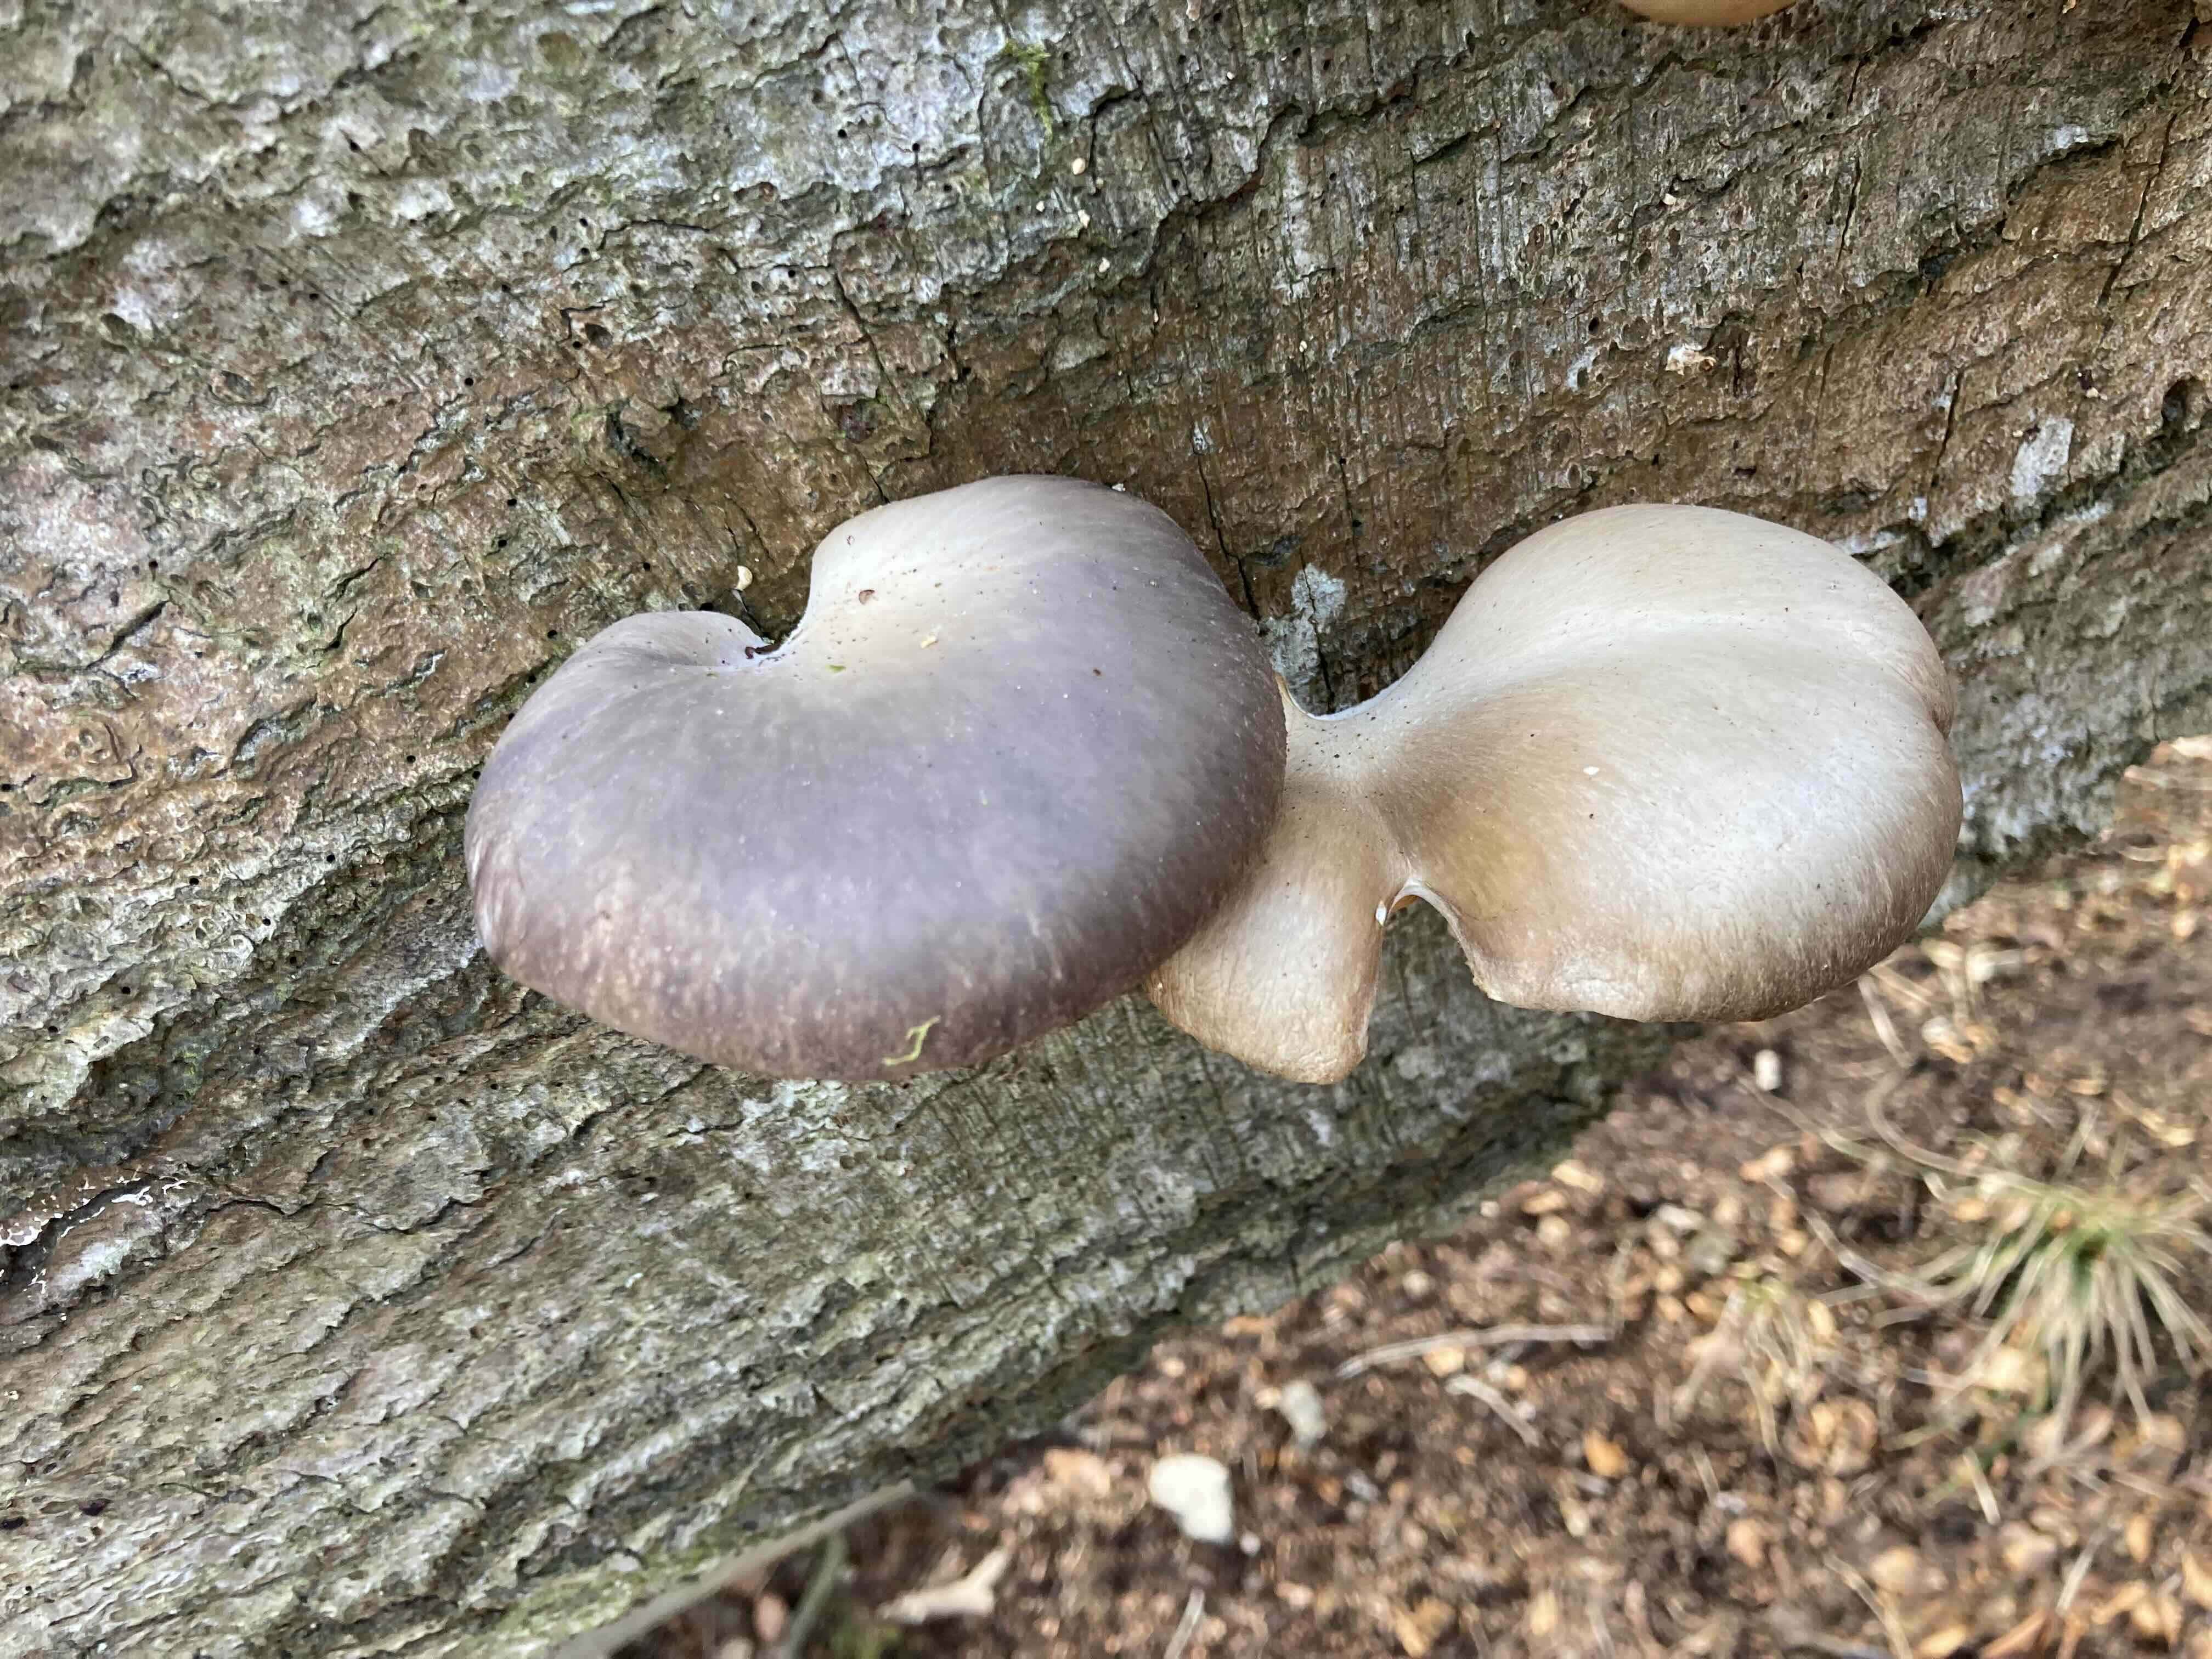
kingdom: Fungi
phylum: Basidiomycota
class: Agaricomycetes
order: Agaricales
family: Pleurotaceae
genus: Pleurotus
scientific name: Pleurotus ostreatus
